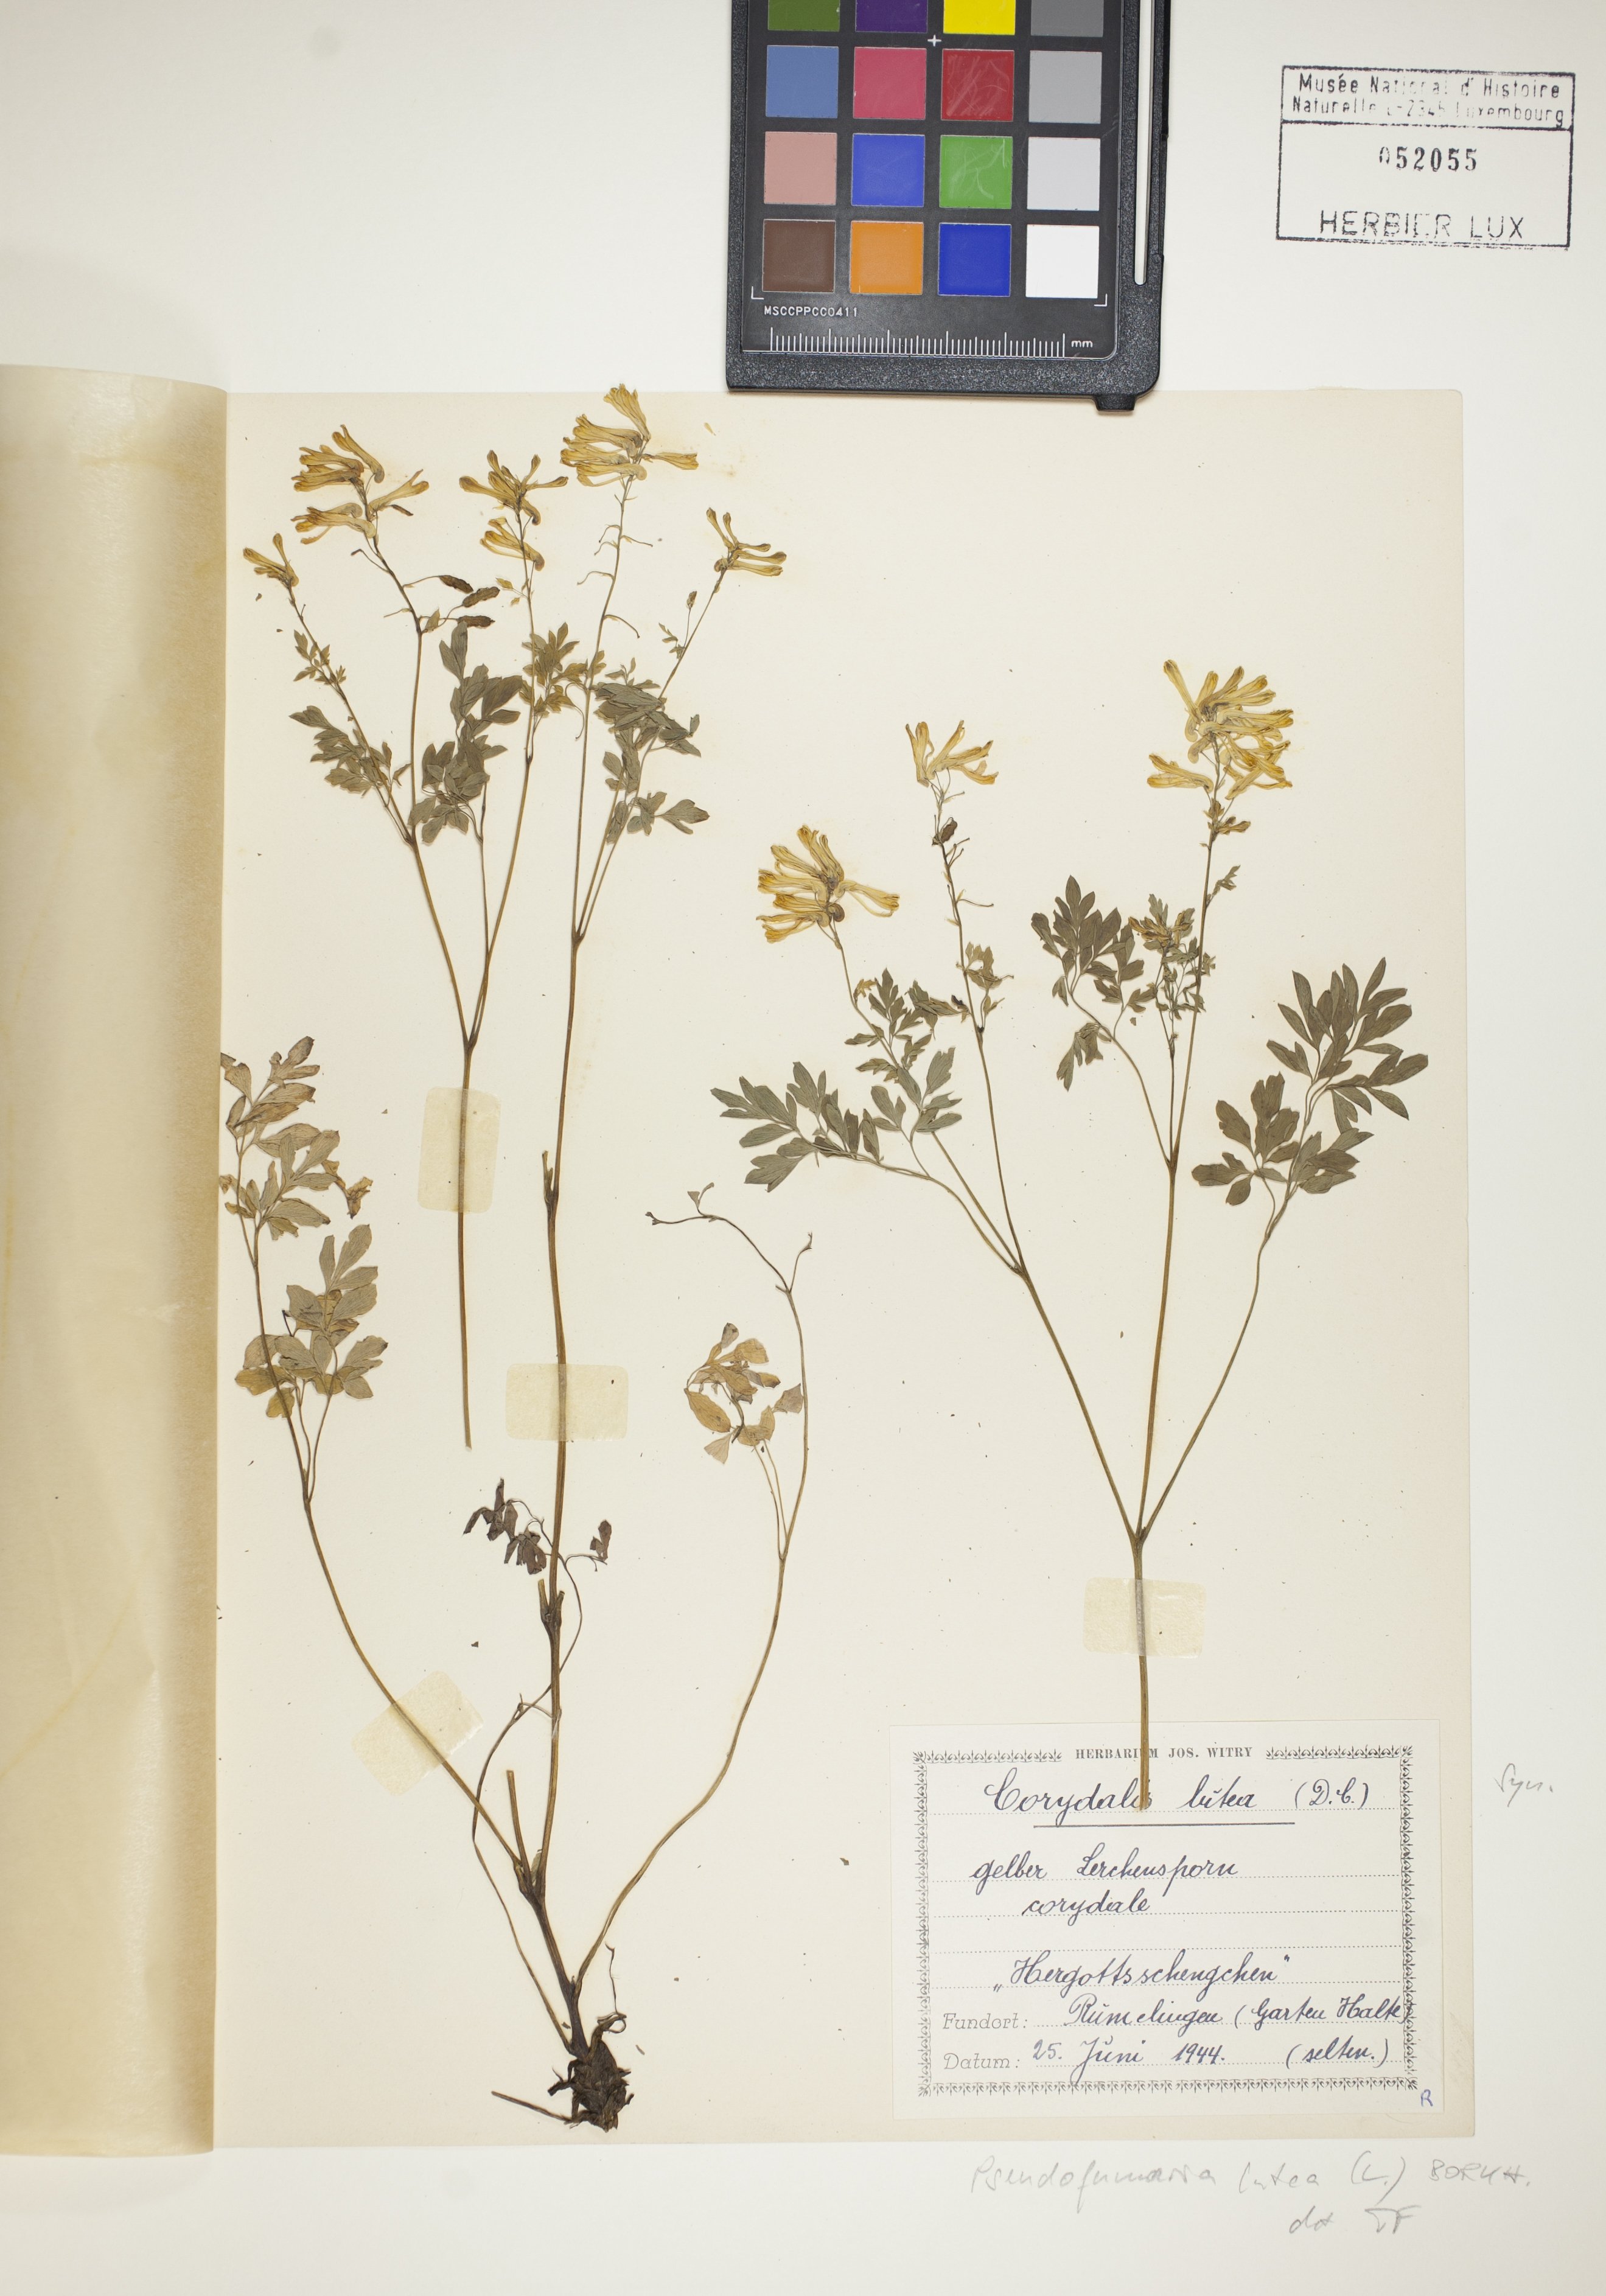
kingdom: Plantae
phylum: Tracheophyta
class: Magnoliopsida
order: Ranunculales
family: Papaveraceae
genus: Pseudofumaria
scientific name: Pseudofumaria lutea
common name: Yellow corydalis
